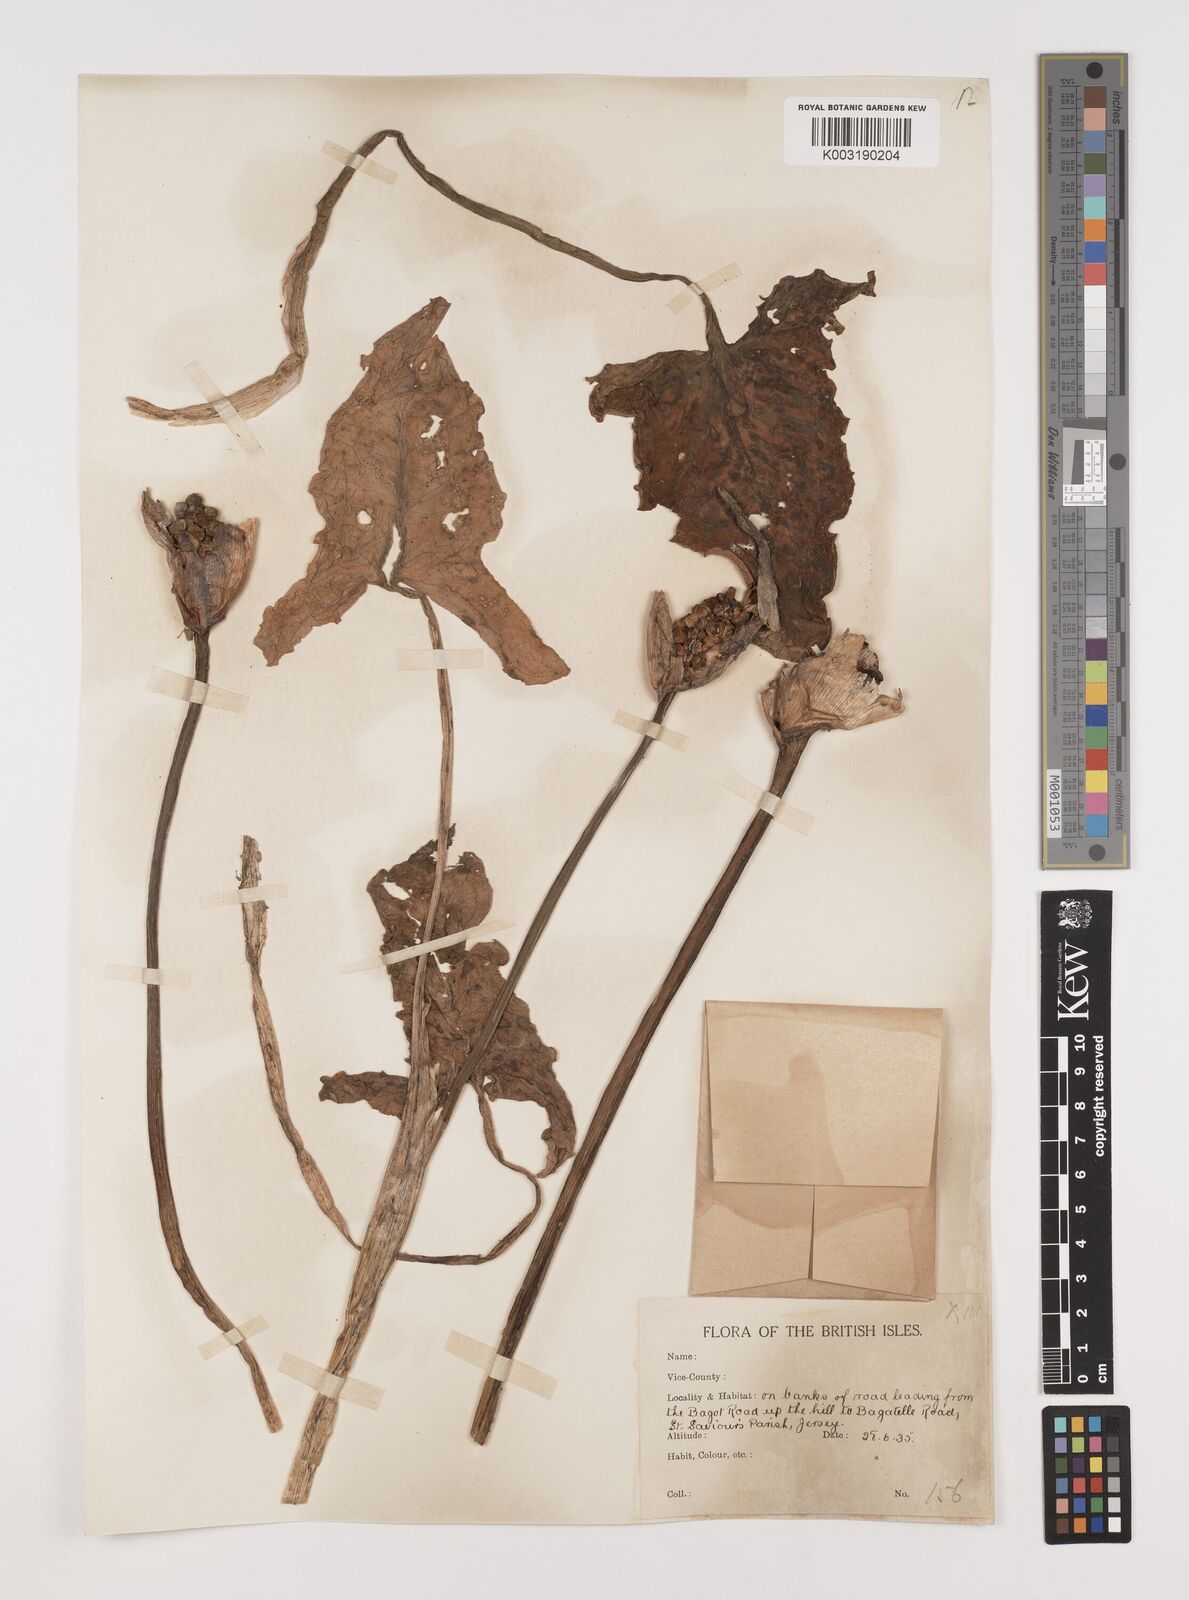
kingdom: Plantae
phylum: Tracheophyta
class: Liliopsida
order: Alismatales
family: Araceae
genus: Arum
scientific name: Arum italicum
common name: Italian lords-and-ladies
